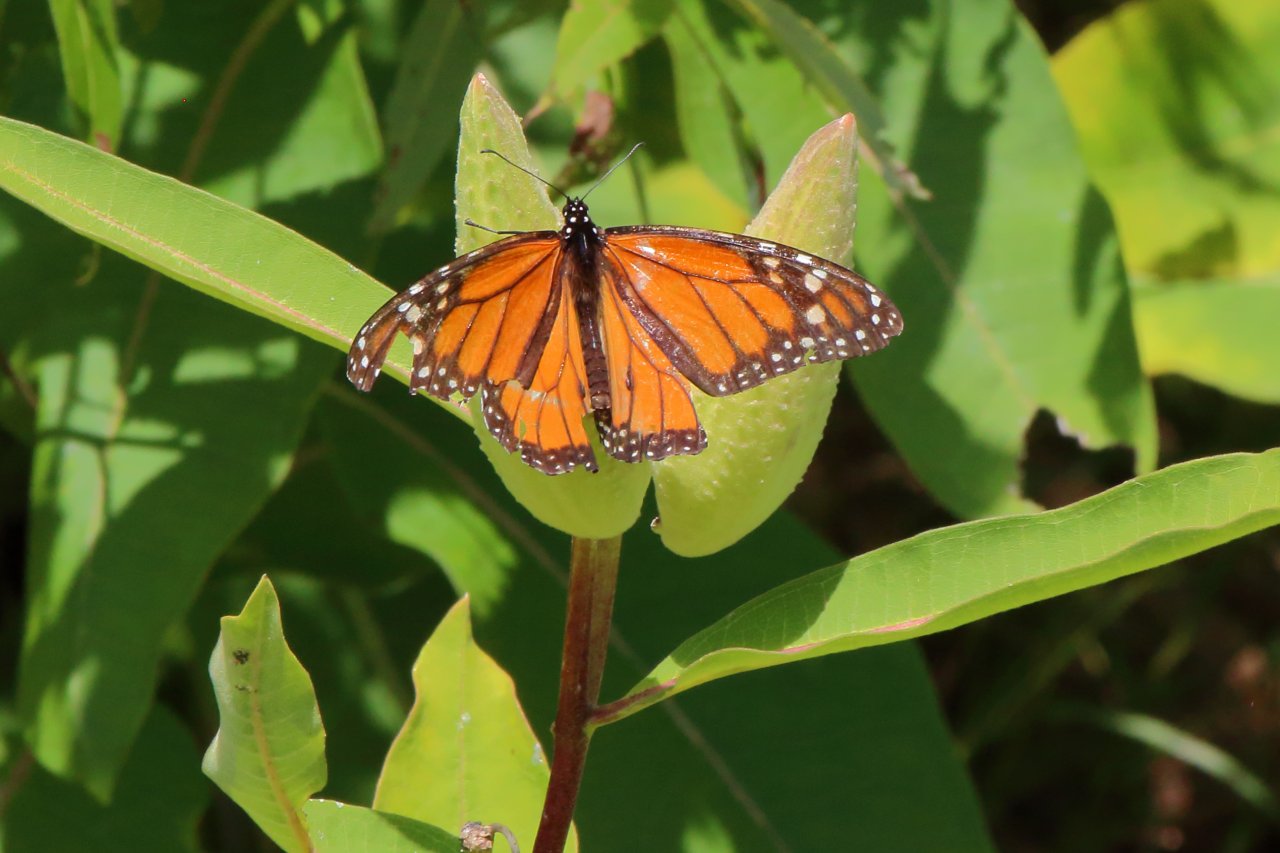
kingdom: Animalia
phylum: Arthropoda
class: Insecta
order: Lepidoptera
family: Nymphalidae
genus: Danaus
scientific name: Danaus plexippus
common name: Monarch
